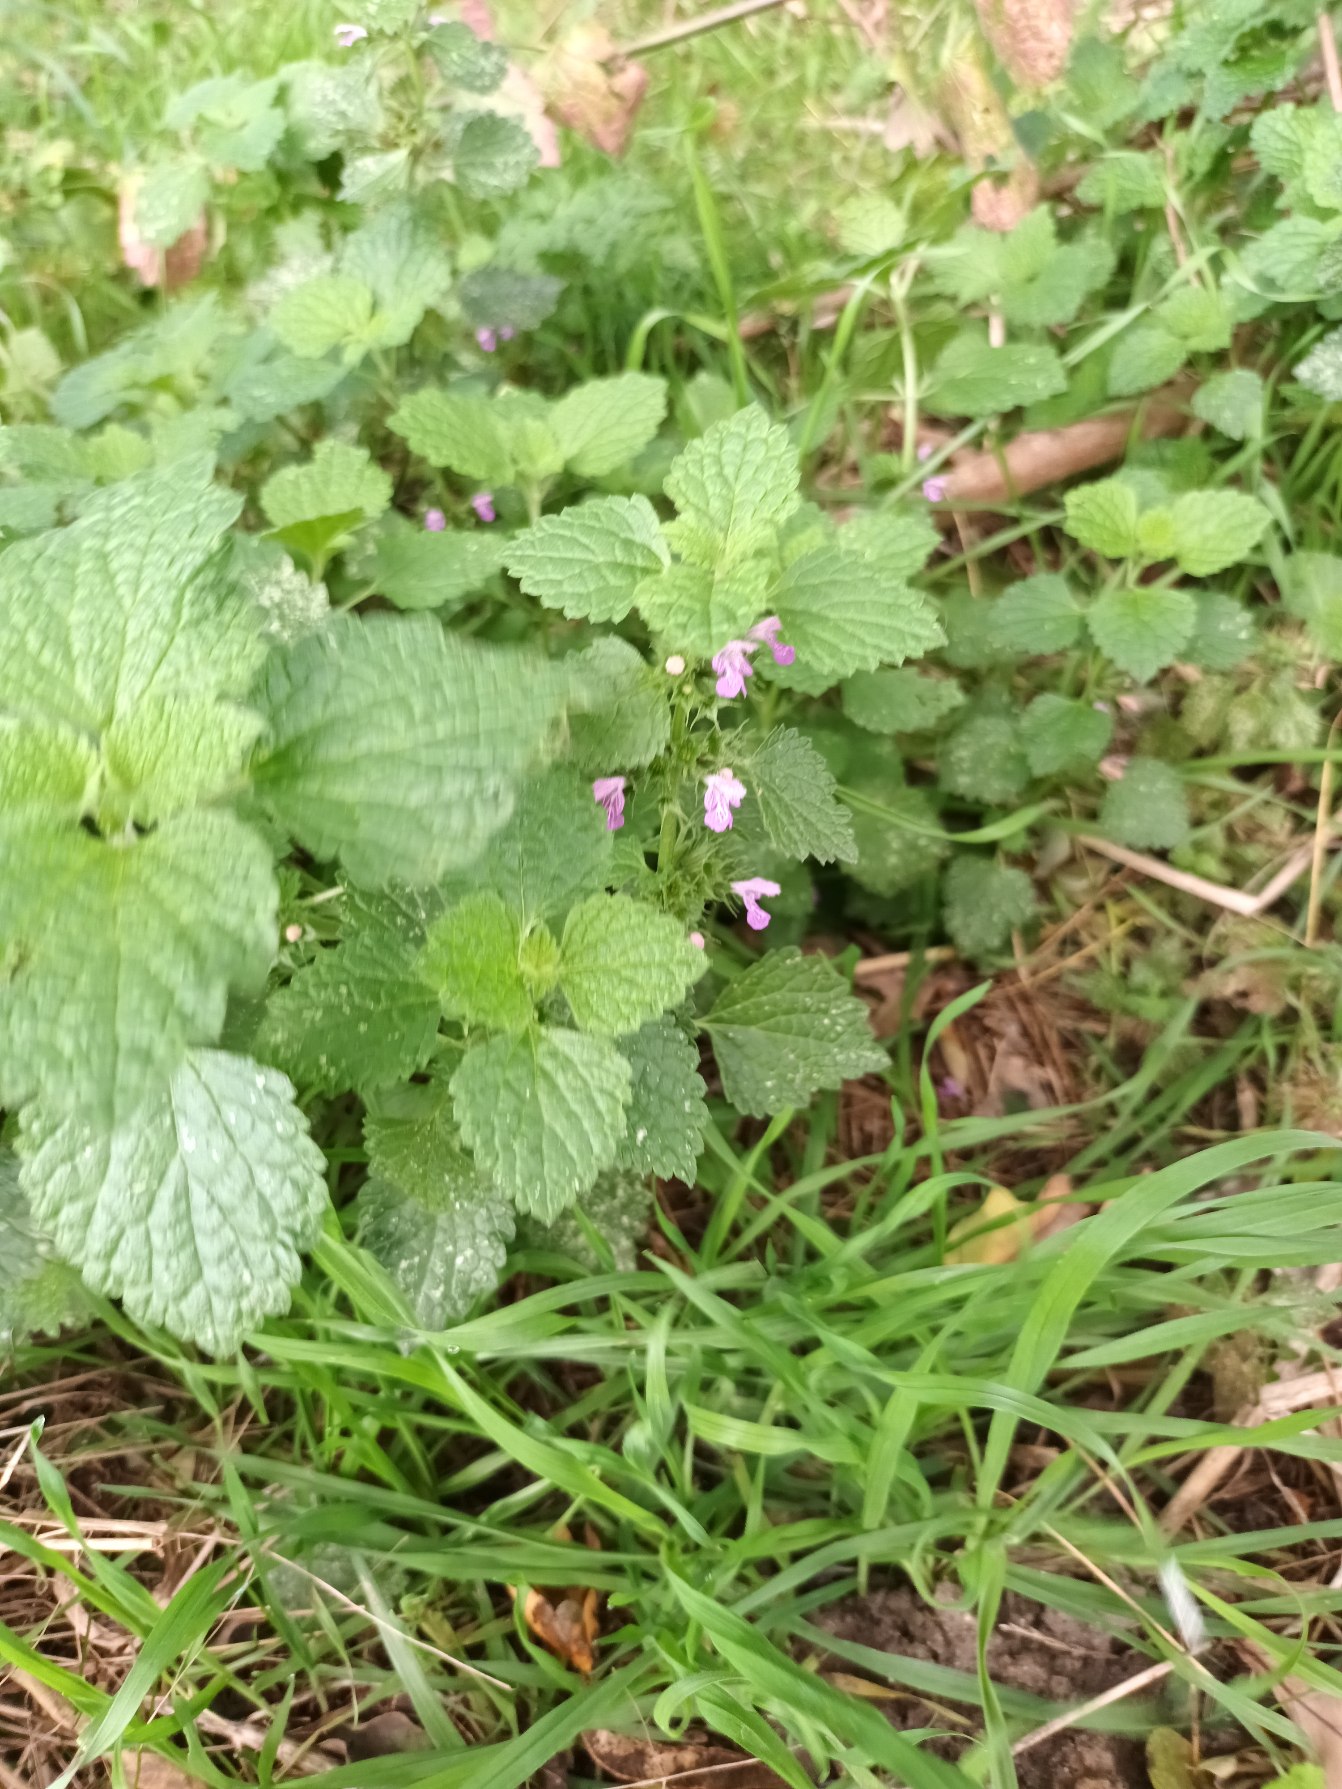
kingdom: Plantae
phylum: Tracheophyta
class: Magnoliopsida
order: Lamiales
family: Lamiaceae
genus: Ballota
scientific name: Ballota nigra
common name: Tandbæger
